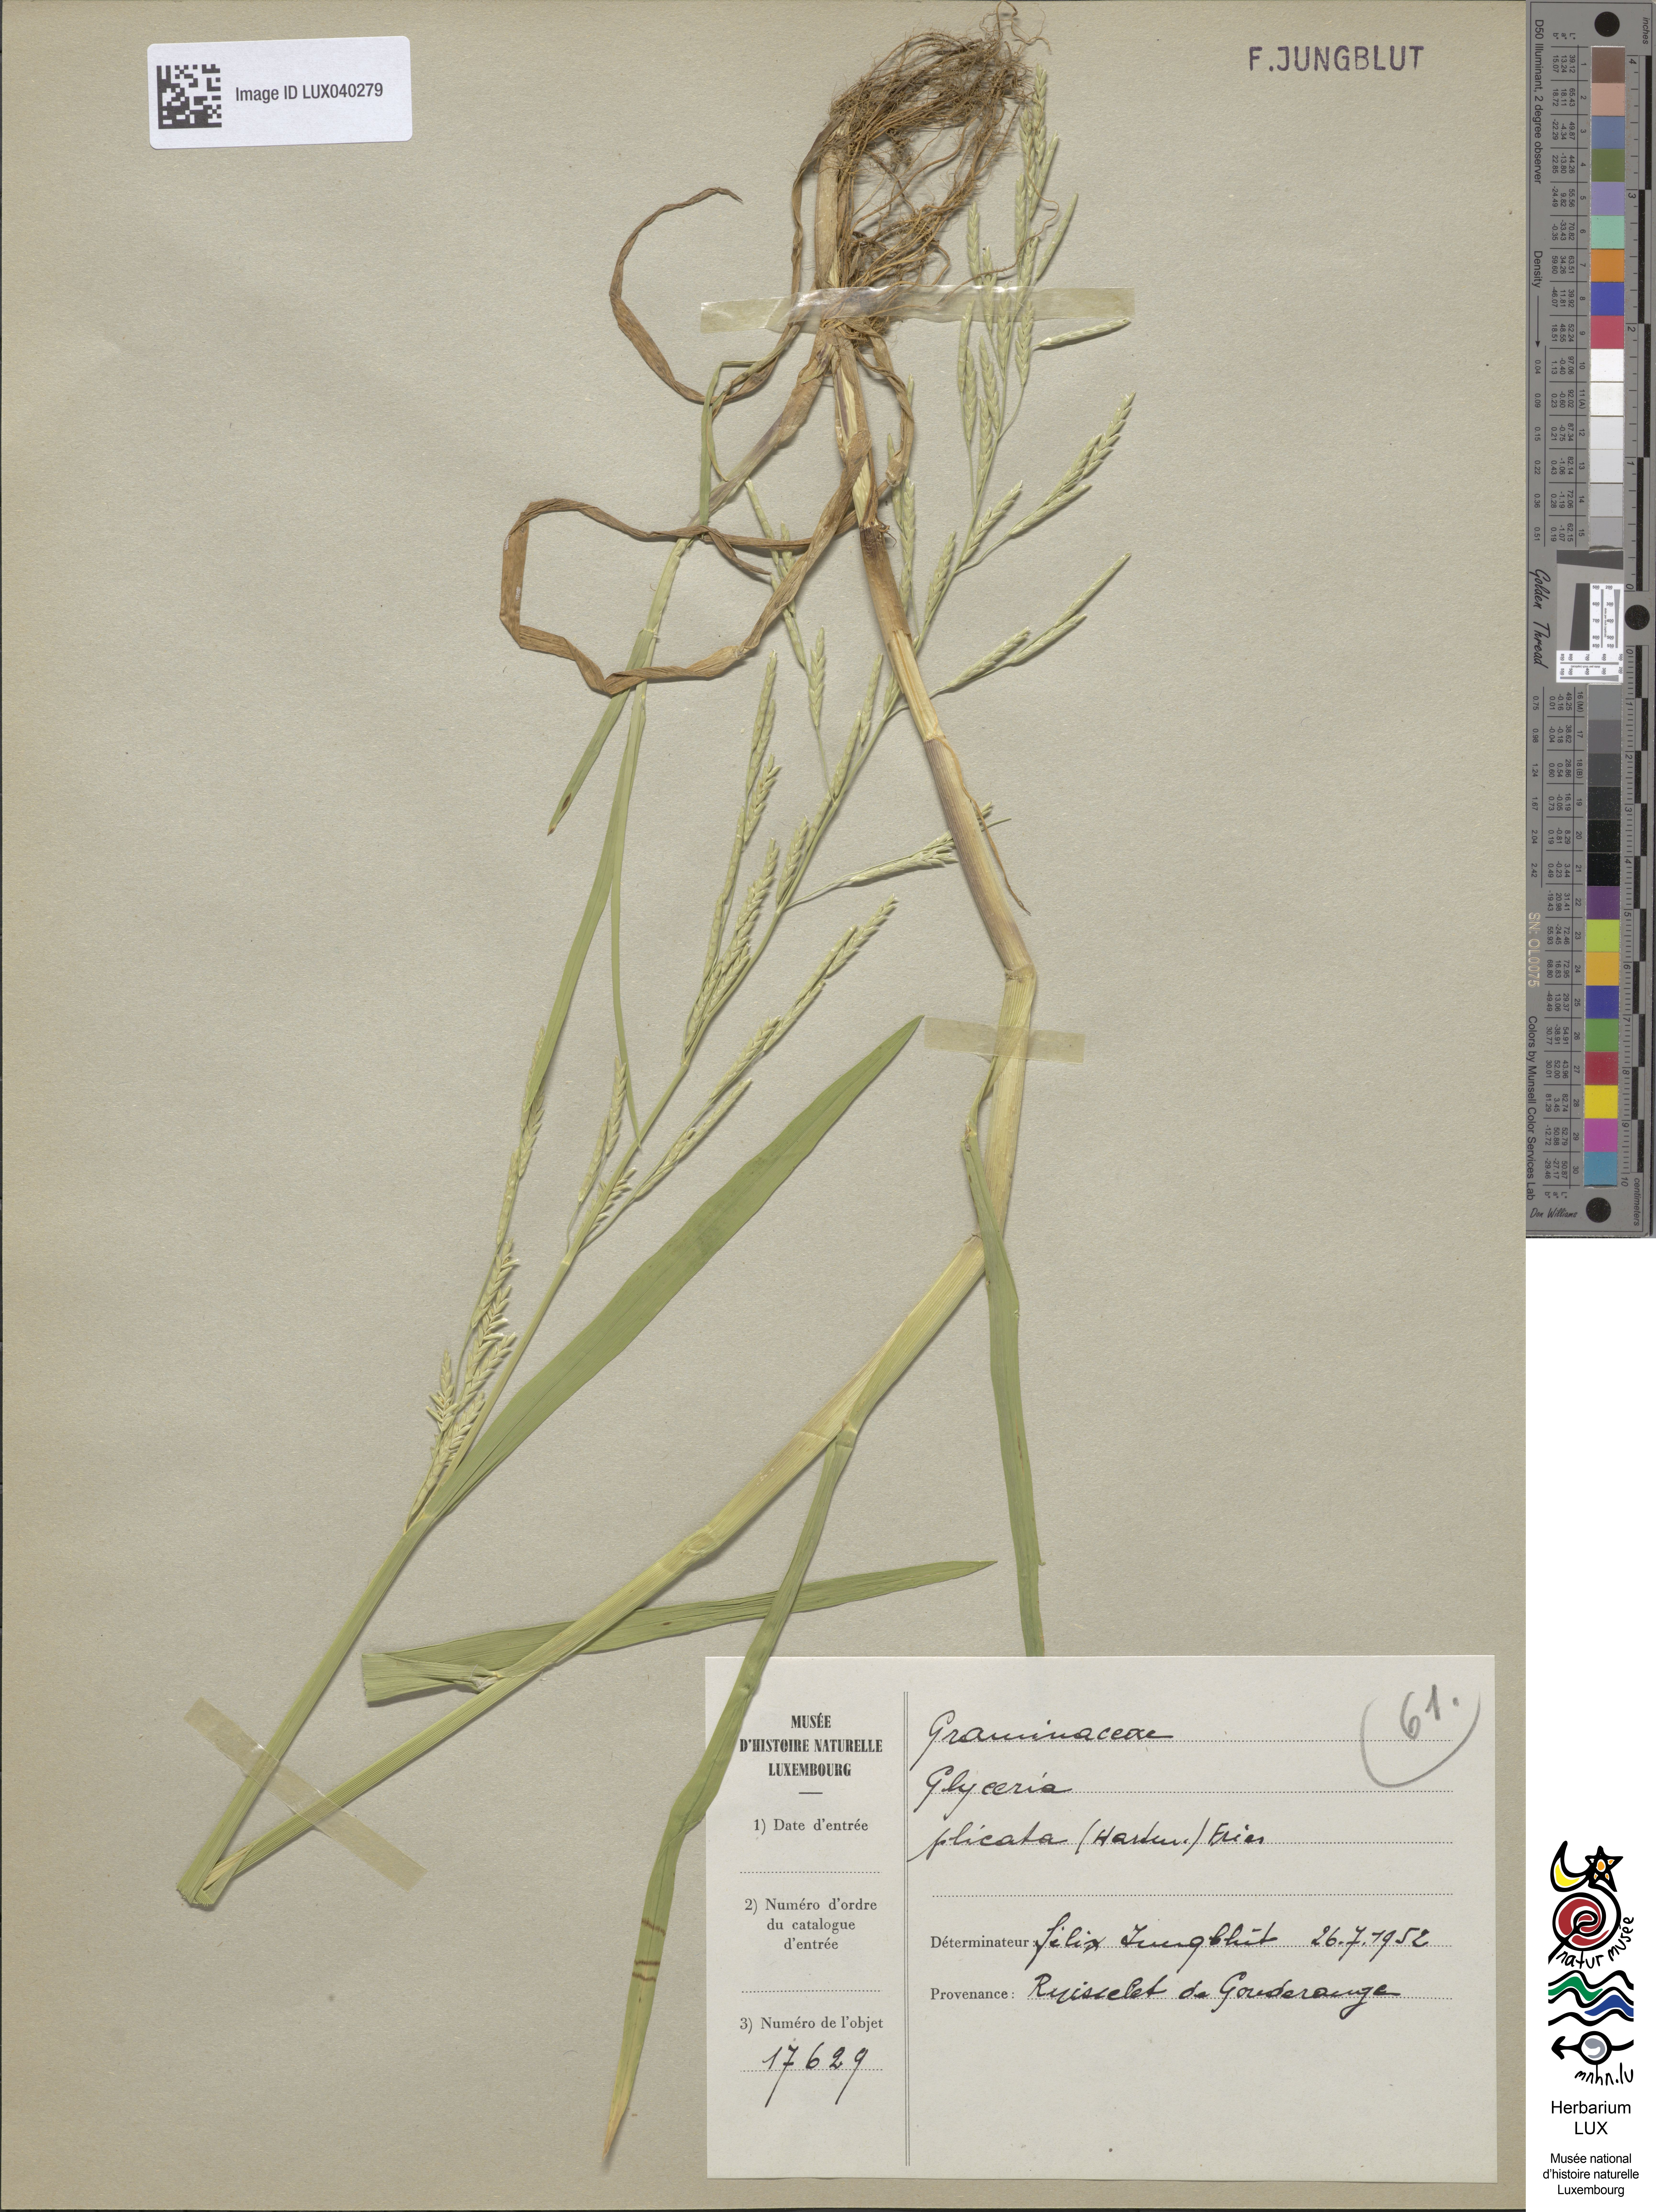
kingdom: Plantae
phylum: Tracheophyta
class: Liliopsida
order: Poales
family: Poaceae
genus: Glyceria
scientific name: Glyceria notata
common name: Plicate sweet-grass
